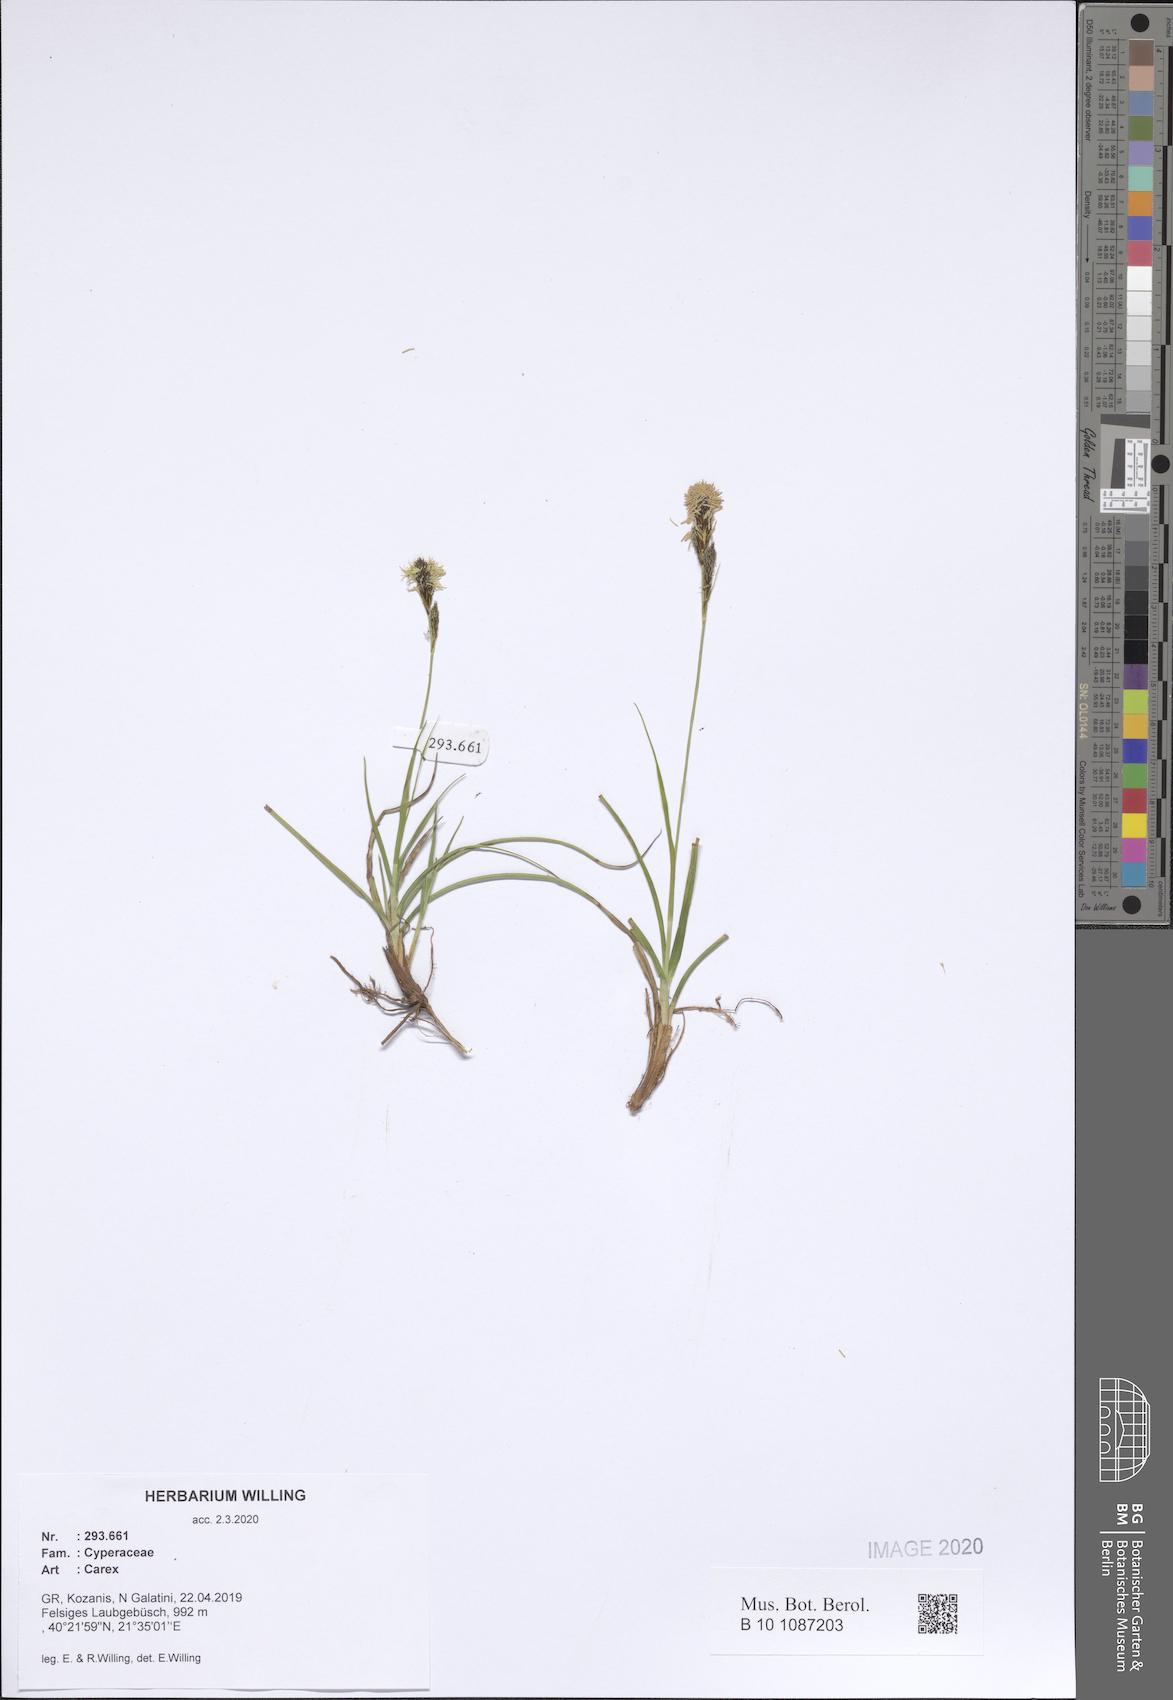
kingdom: Plantae
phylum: Tracheophyta
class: Liliopsida
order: Poales
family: Cyperaceae
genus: Carex
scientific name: Carex
